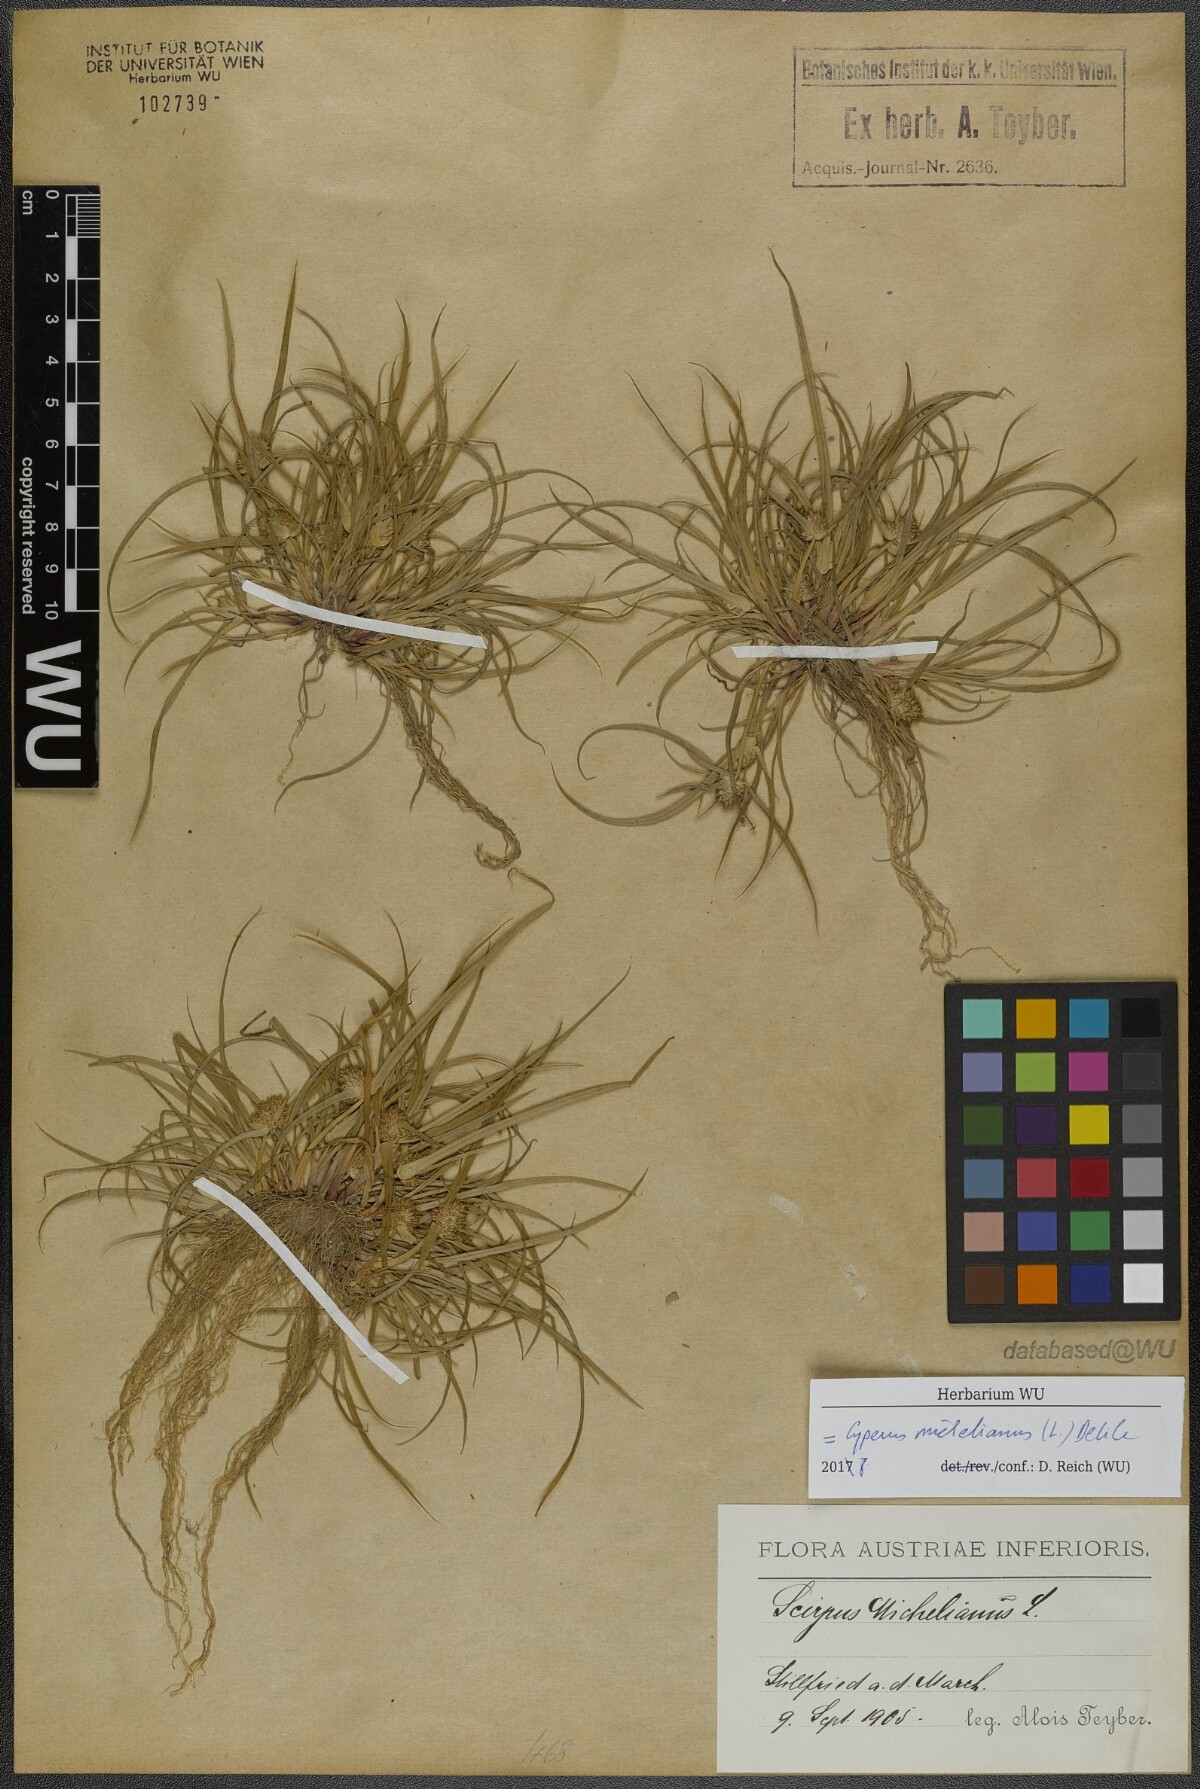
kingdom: Plantae
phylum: Tracheophyta
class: Liliopsida
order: Poales
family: Cyperaceae
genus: Cyperus
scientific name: Cyperus michelianus
